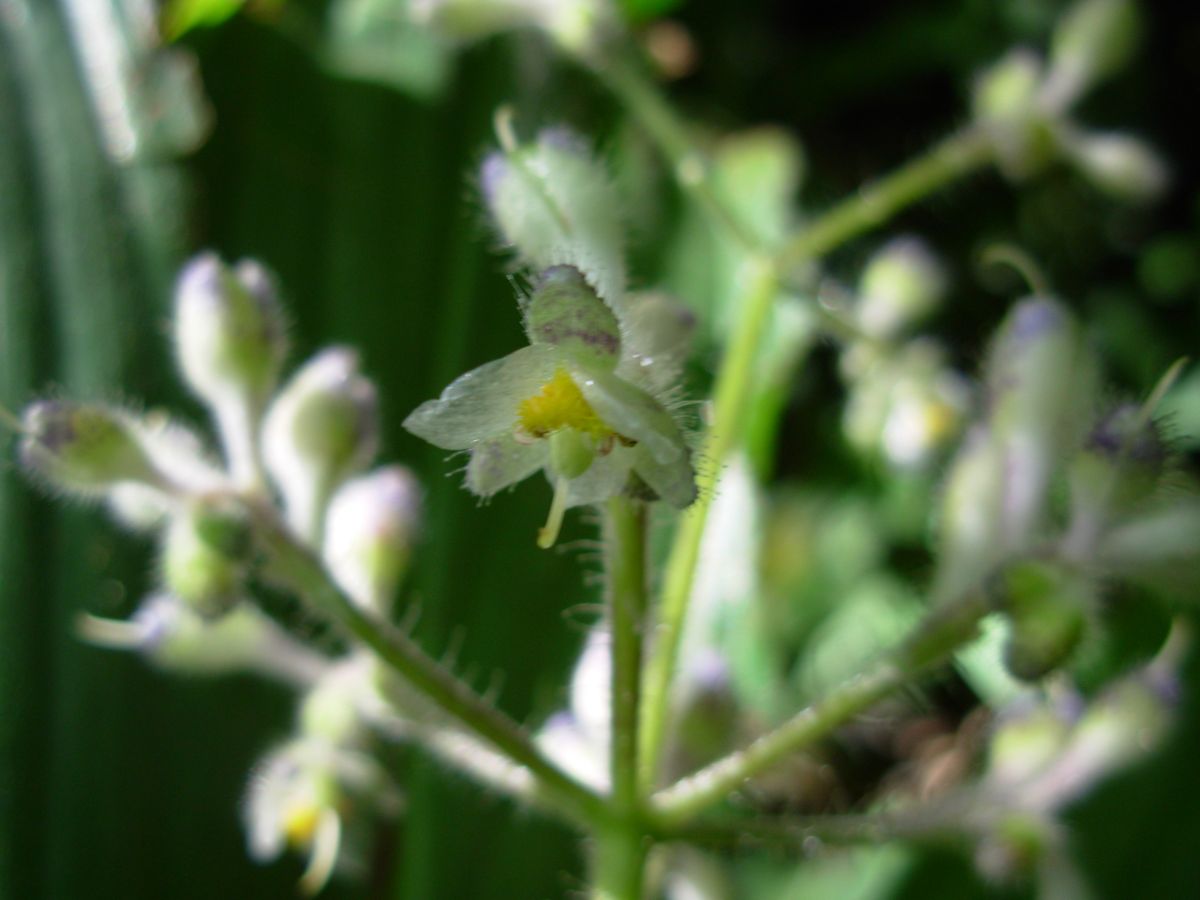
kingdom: Plantae
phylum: Tracheophyta
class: Liliopsida
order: Commelinales
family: Commelinaceae
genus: Tinantia
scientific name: Tinantia parviflora
